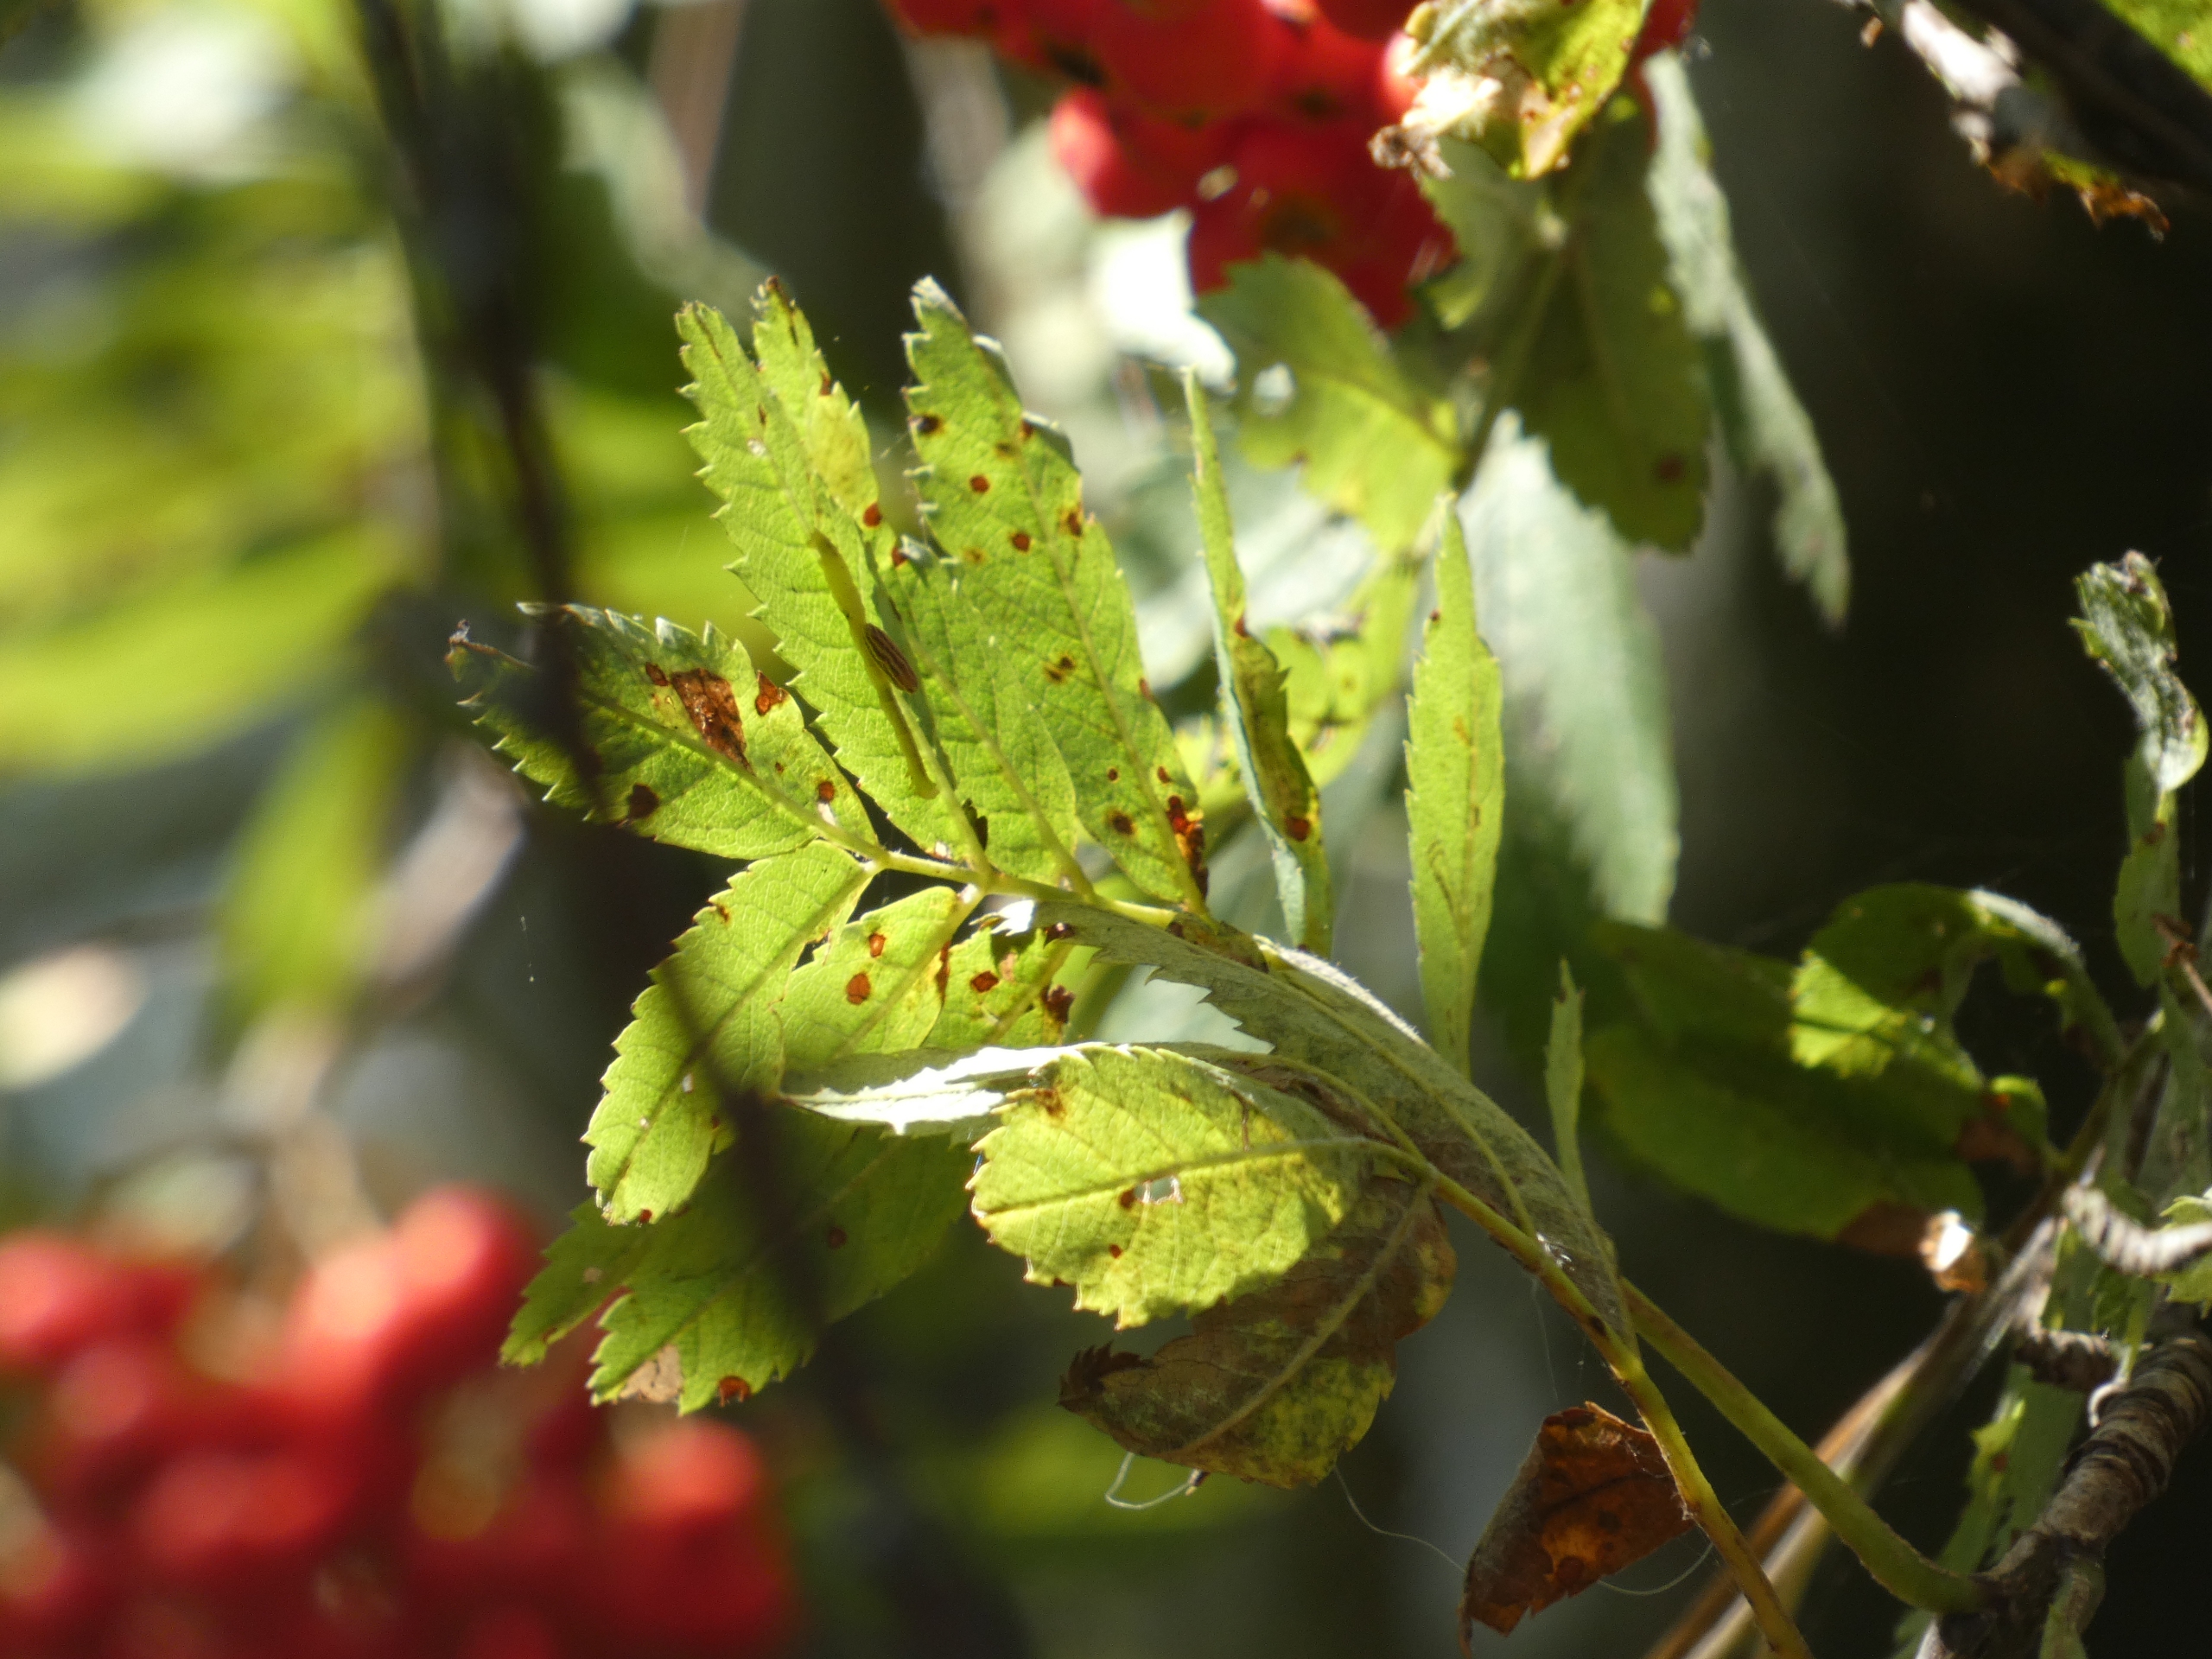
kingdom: Plantae
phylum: Tracheophyta
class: Magnoliopsida
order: Rosales
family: Rosaceae
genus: Sorbus
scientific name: Sorbus aucuparia
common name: Almindelig røn
